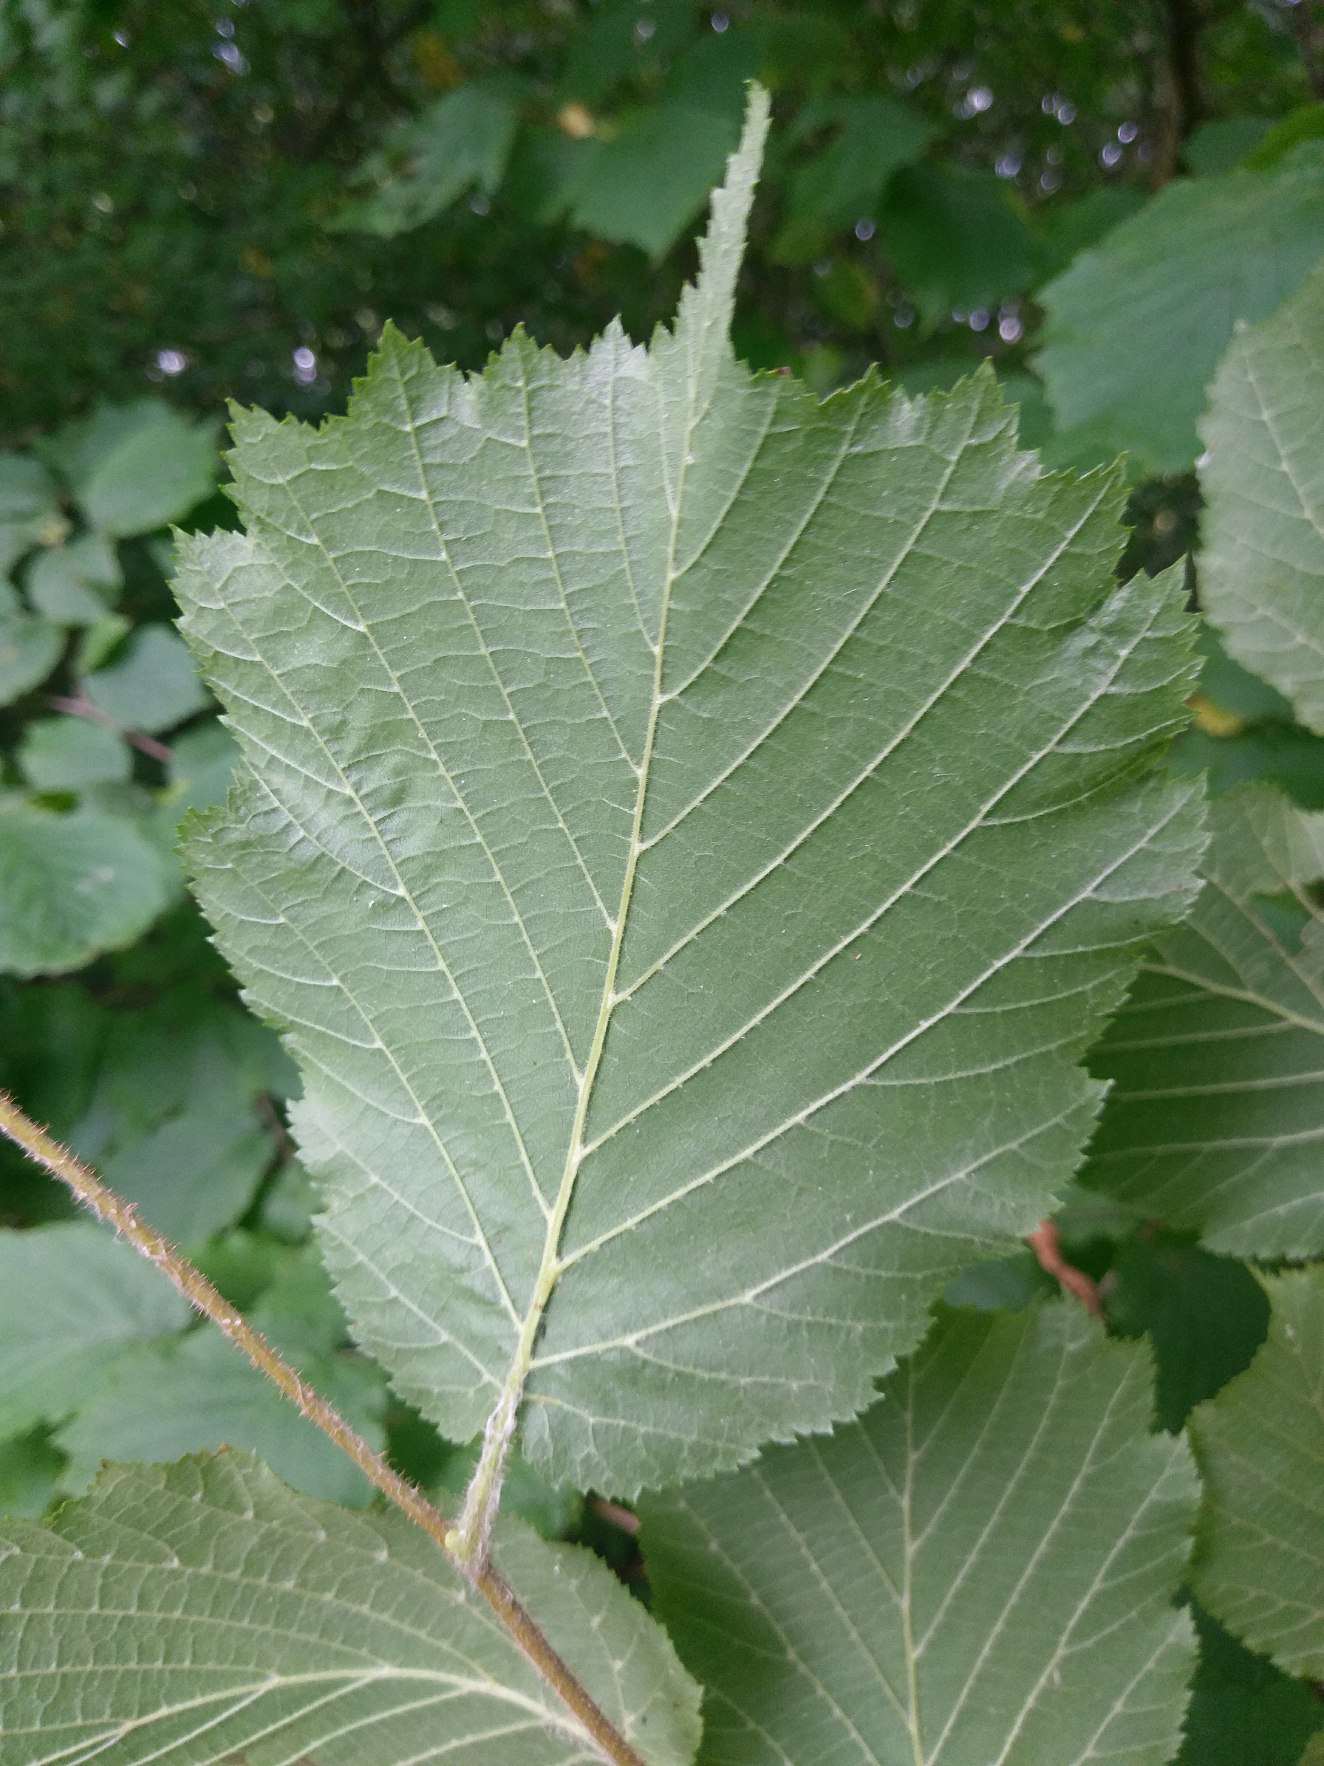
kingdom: Plantae
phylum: Tracheophyta
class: Magnoliopsida
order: Fagales
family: Betulaceae
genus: Corylus
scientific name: Corylus avellana
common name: Hassel
